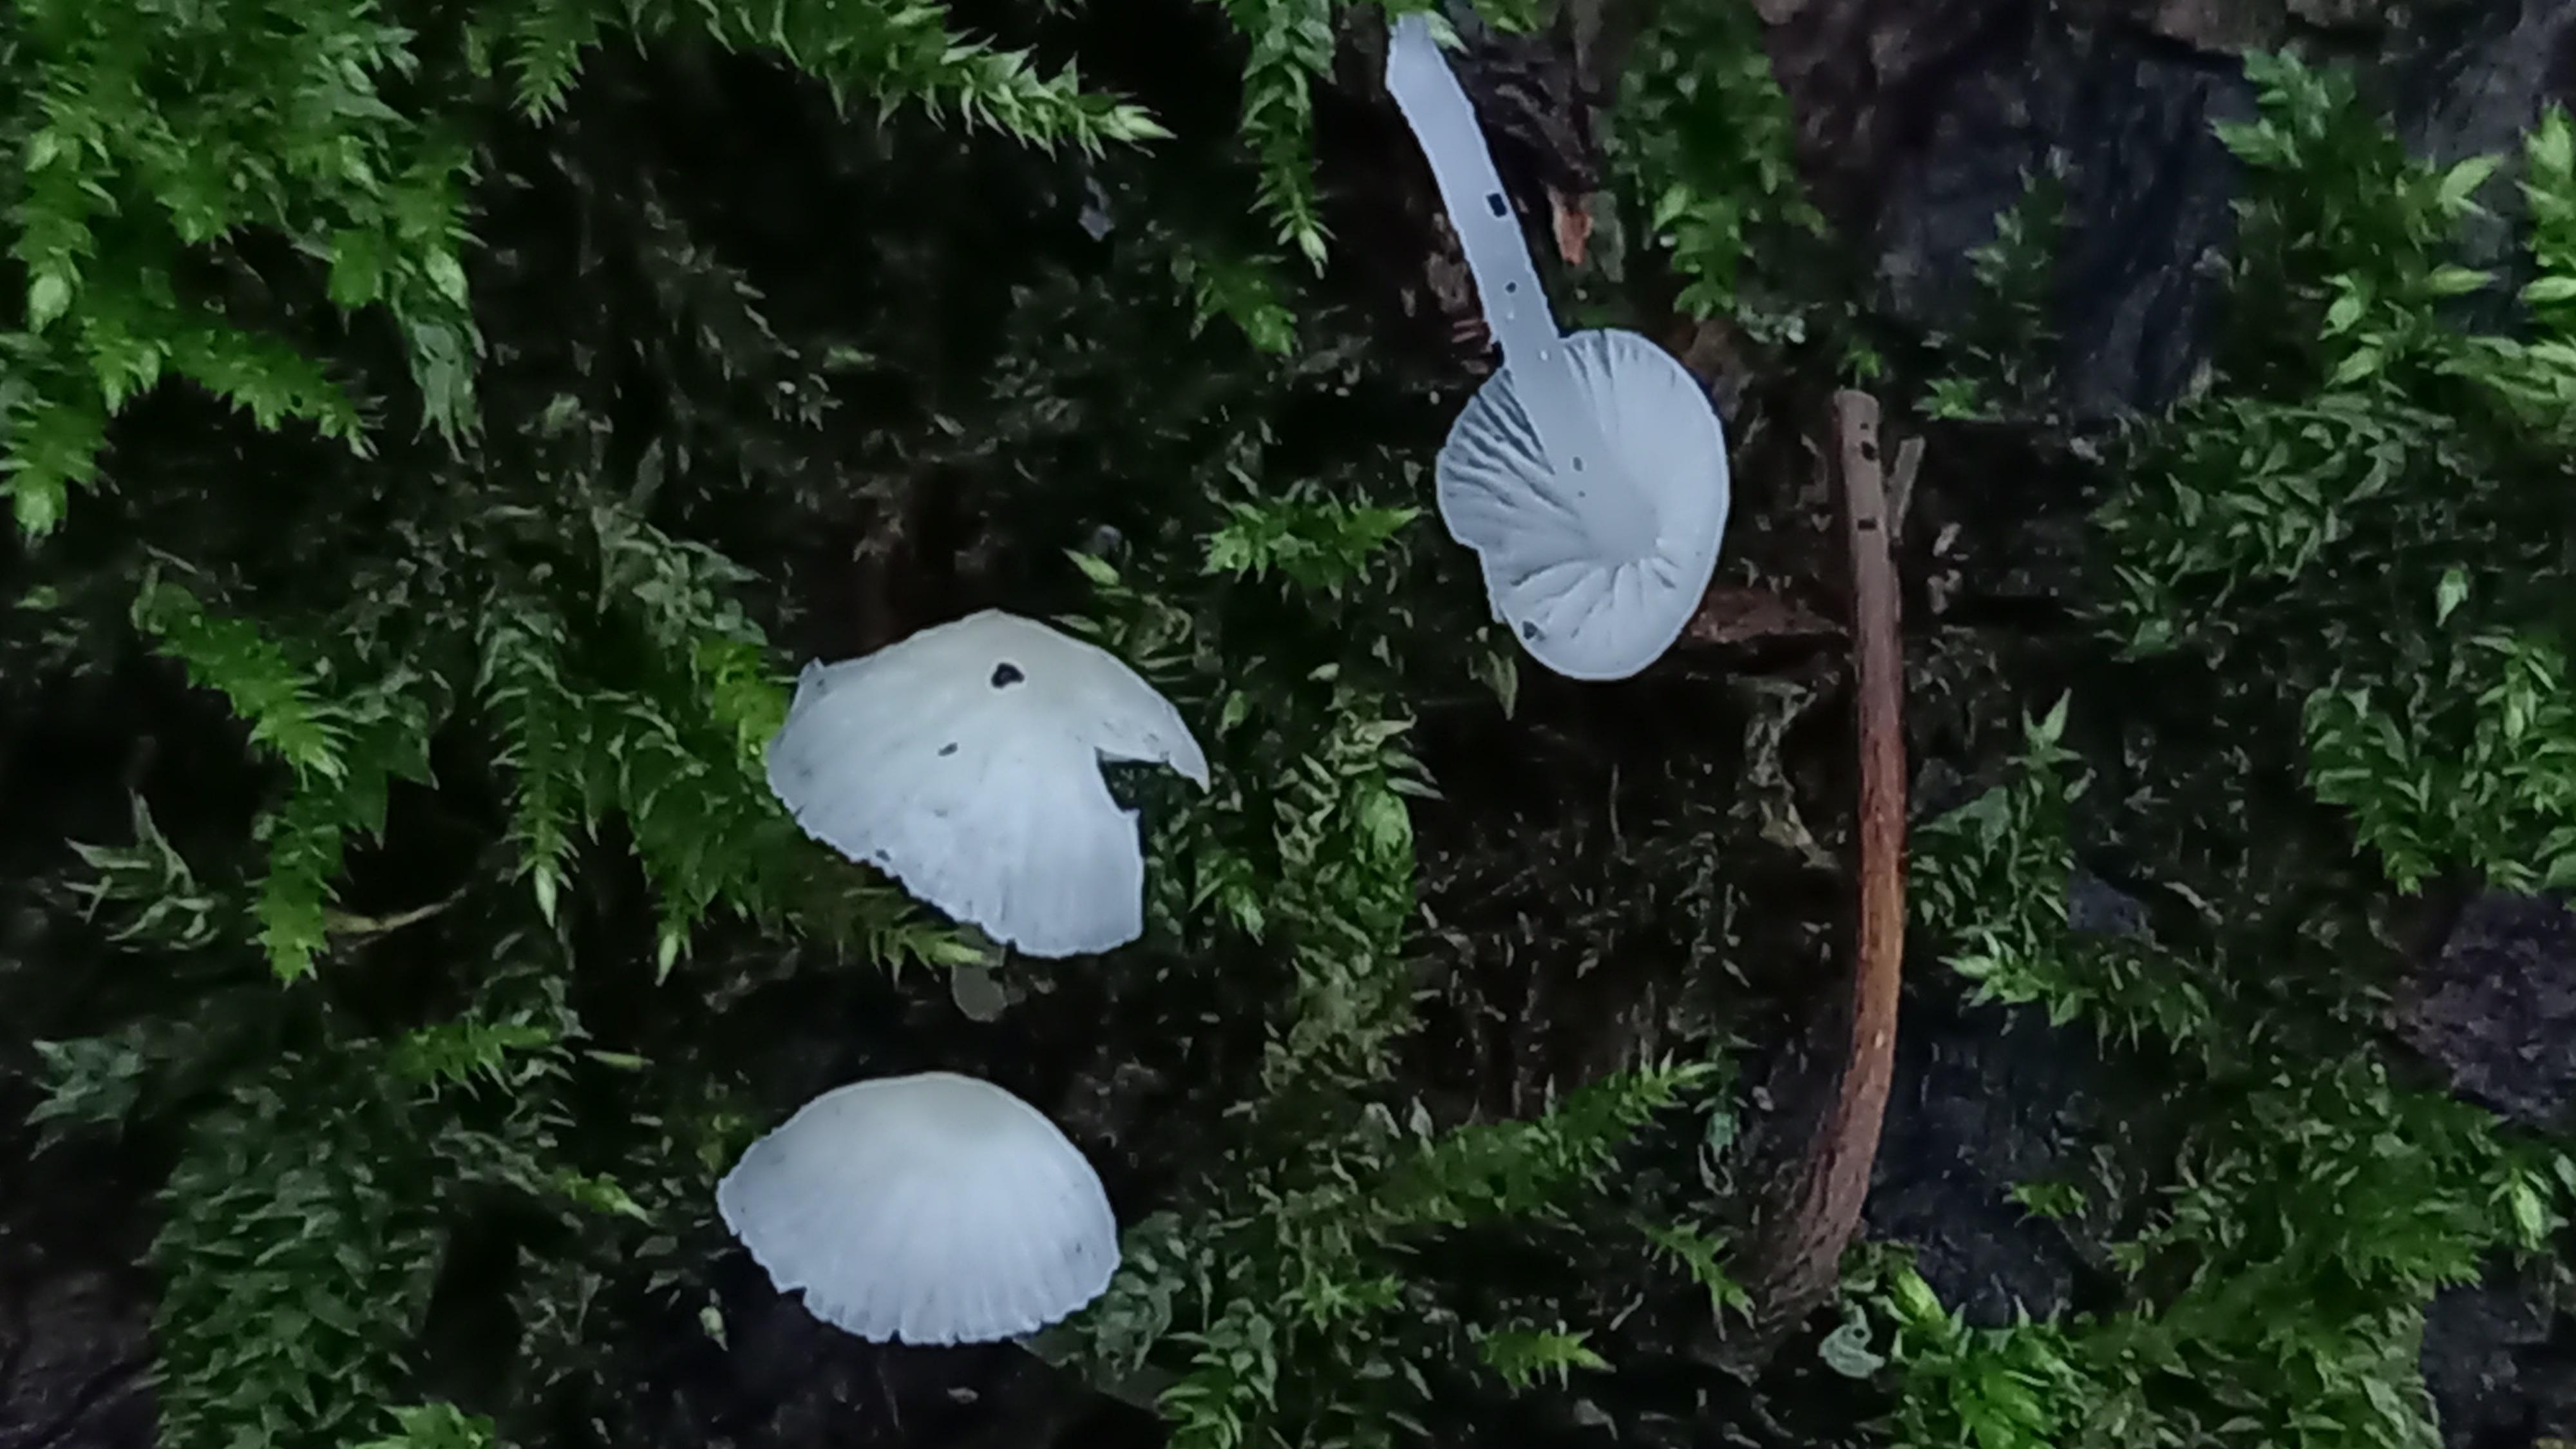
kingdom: Fungi
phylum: Basidiomycota
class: Agaricomycetes
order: Agaricales
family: Porotheleaceae
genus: Phloeomana
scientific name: Phloeomana minutula
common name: bleg huesvamp
